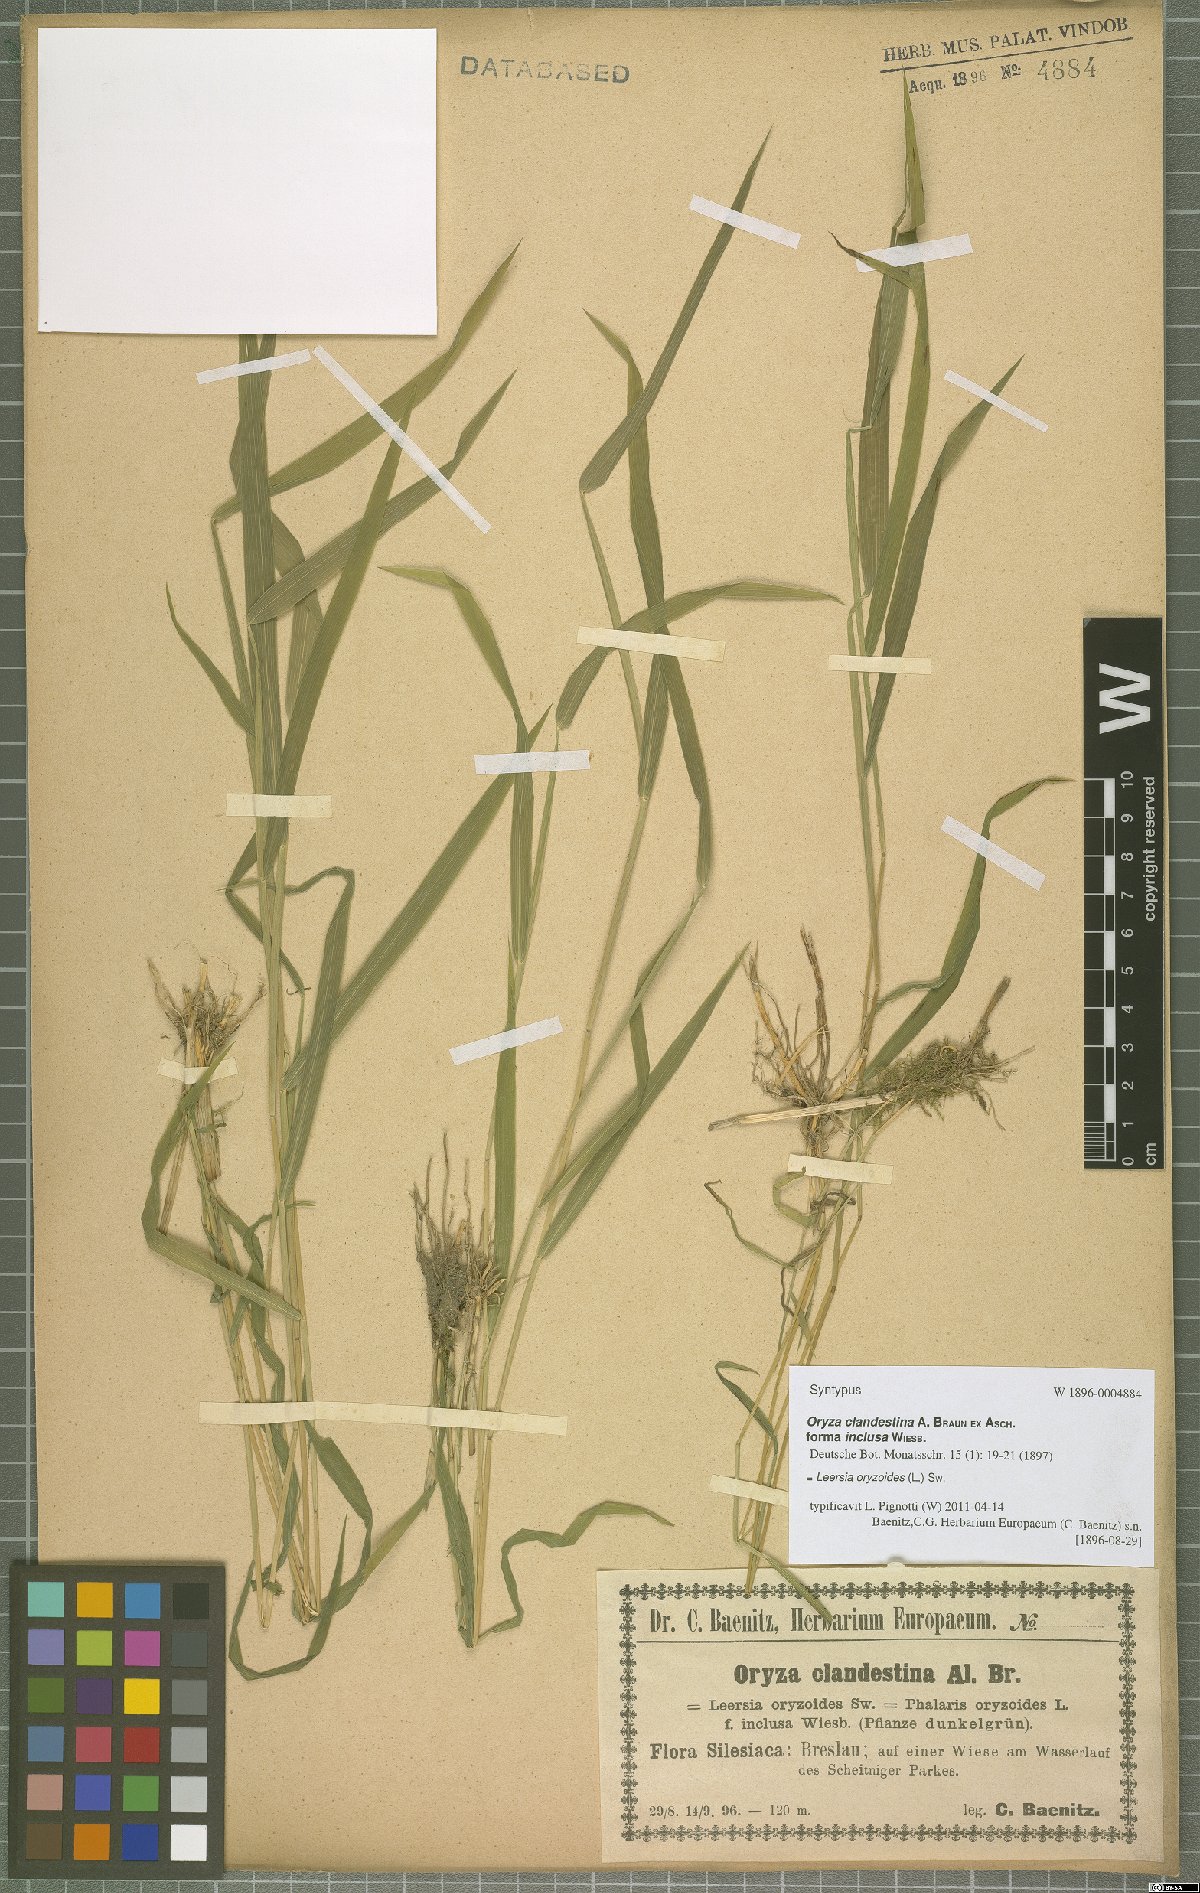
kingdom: Plantae
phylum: Tracheophyta
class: Liliopsida
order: Poales
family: Poaceae
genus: Leersia
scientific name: Leersia oryzoides
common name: Cut-grass
